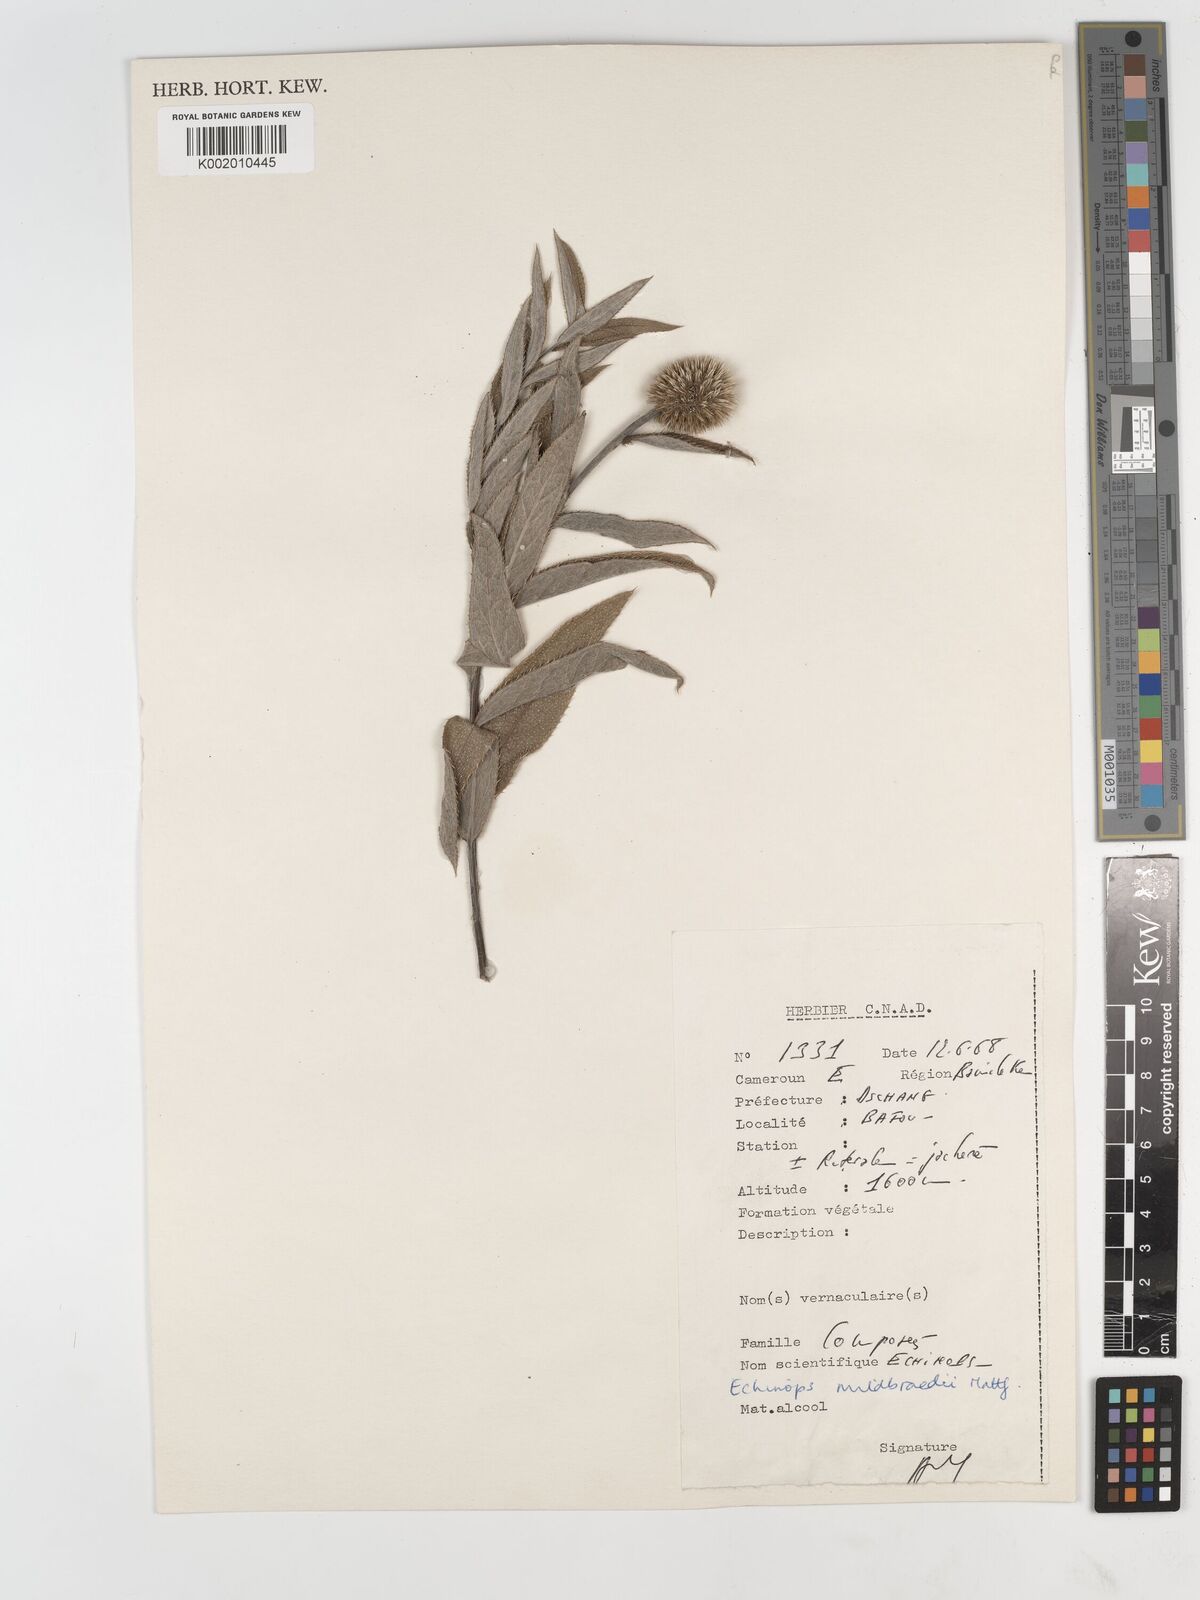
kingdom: Plantae
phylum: Tracheophyta
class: Magnoliopsida
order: Asterales
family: Asteraceae
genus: Echinops
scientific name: Echinops mildbraedii
